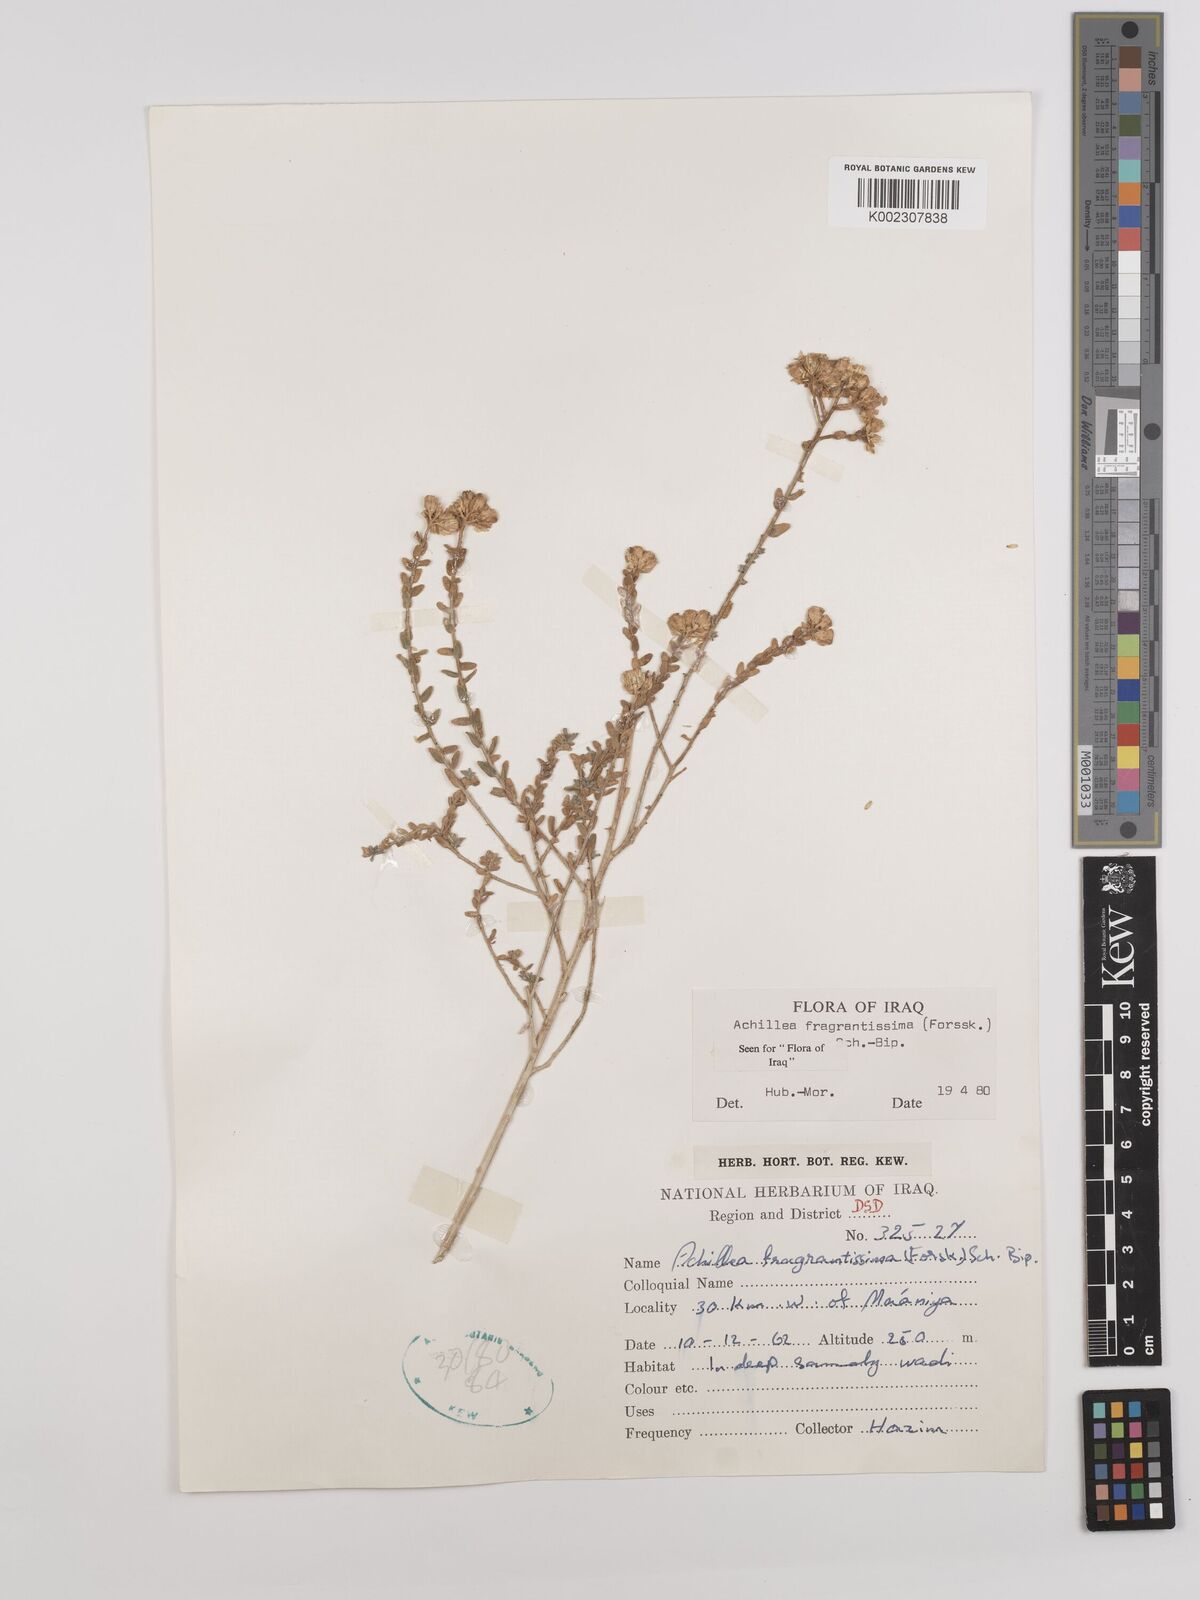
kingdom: Plantae
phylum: Tracheophyta
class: Magnoliopsida
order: Asterales
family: Asteraceae
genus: Achillea
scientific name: Achillea fragrantissima
